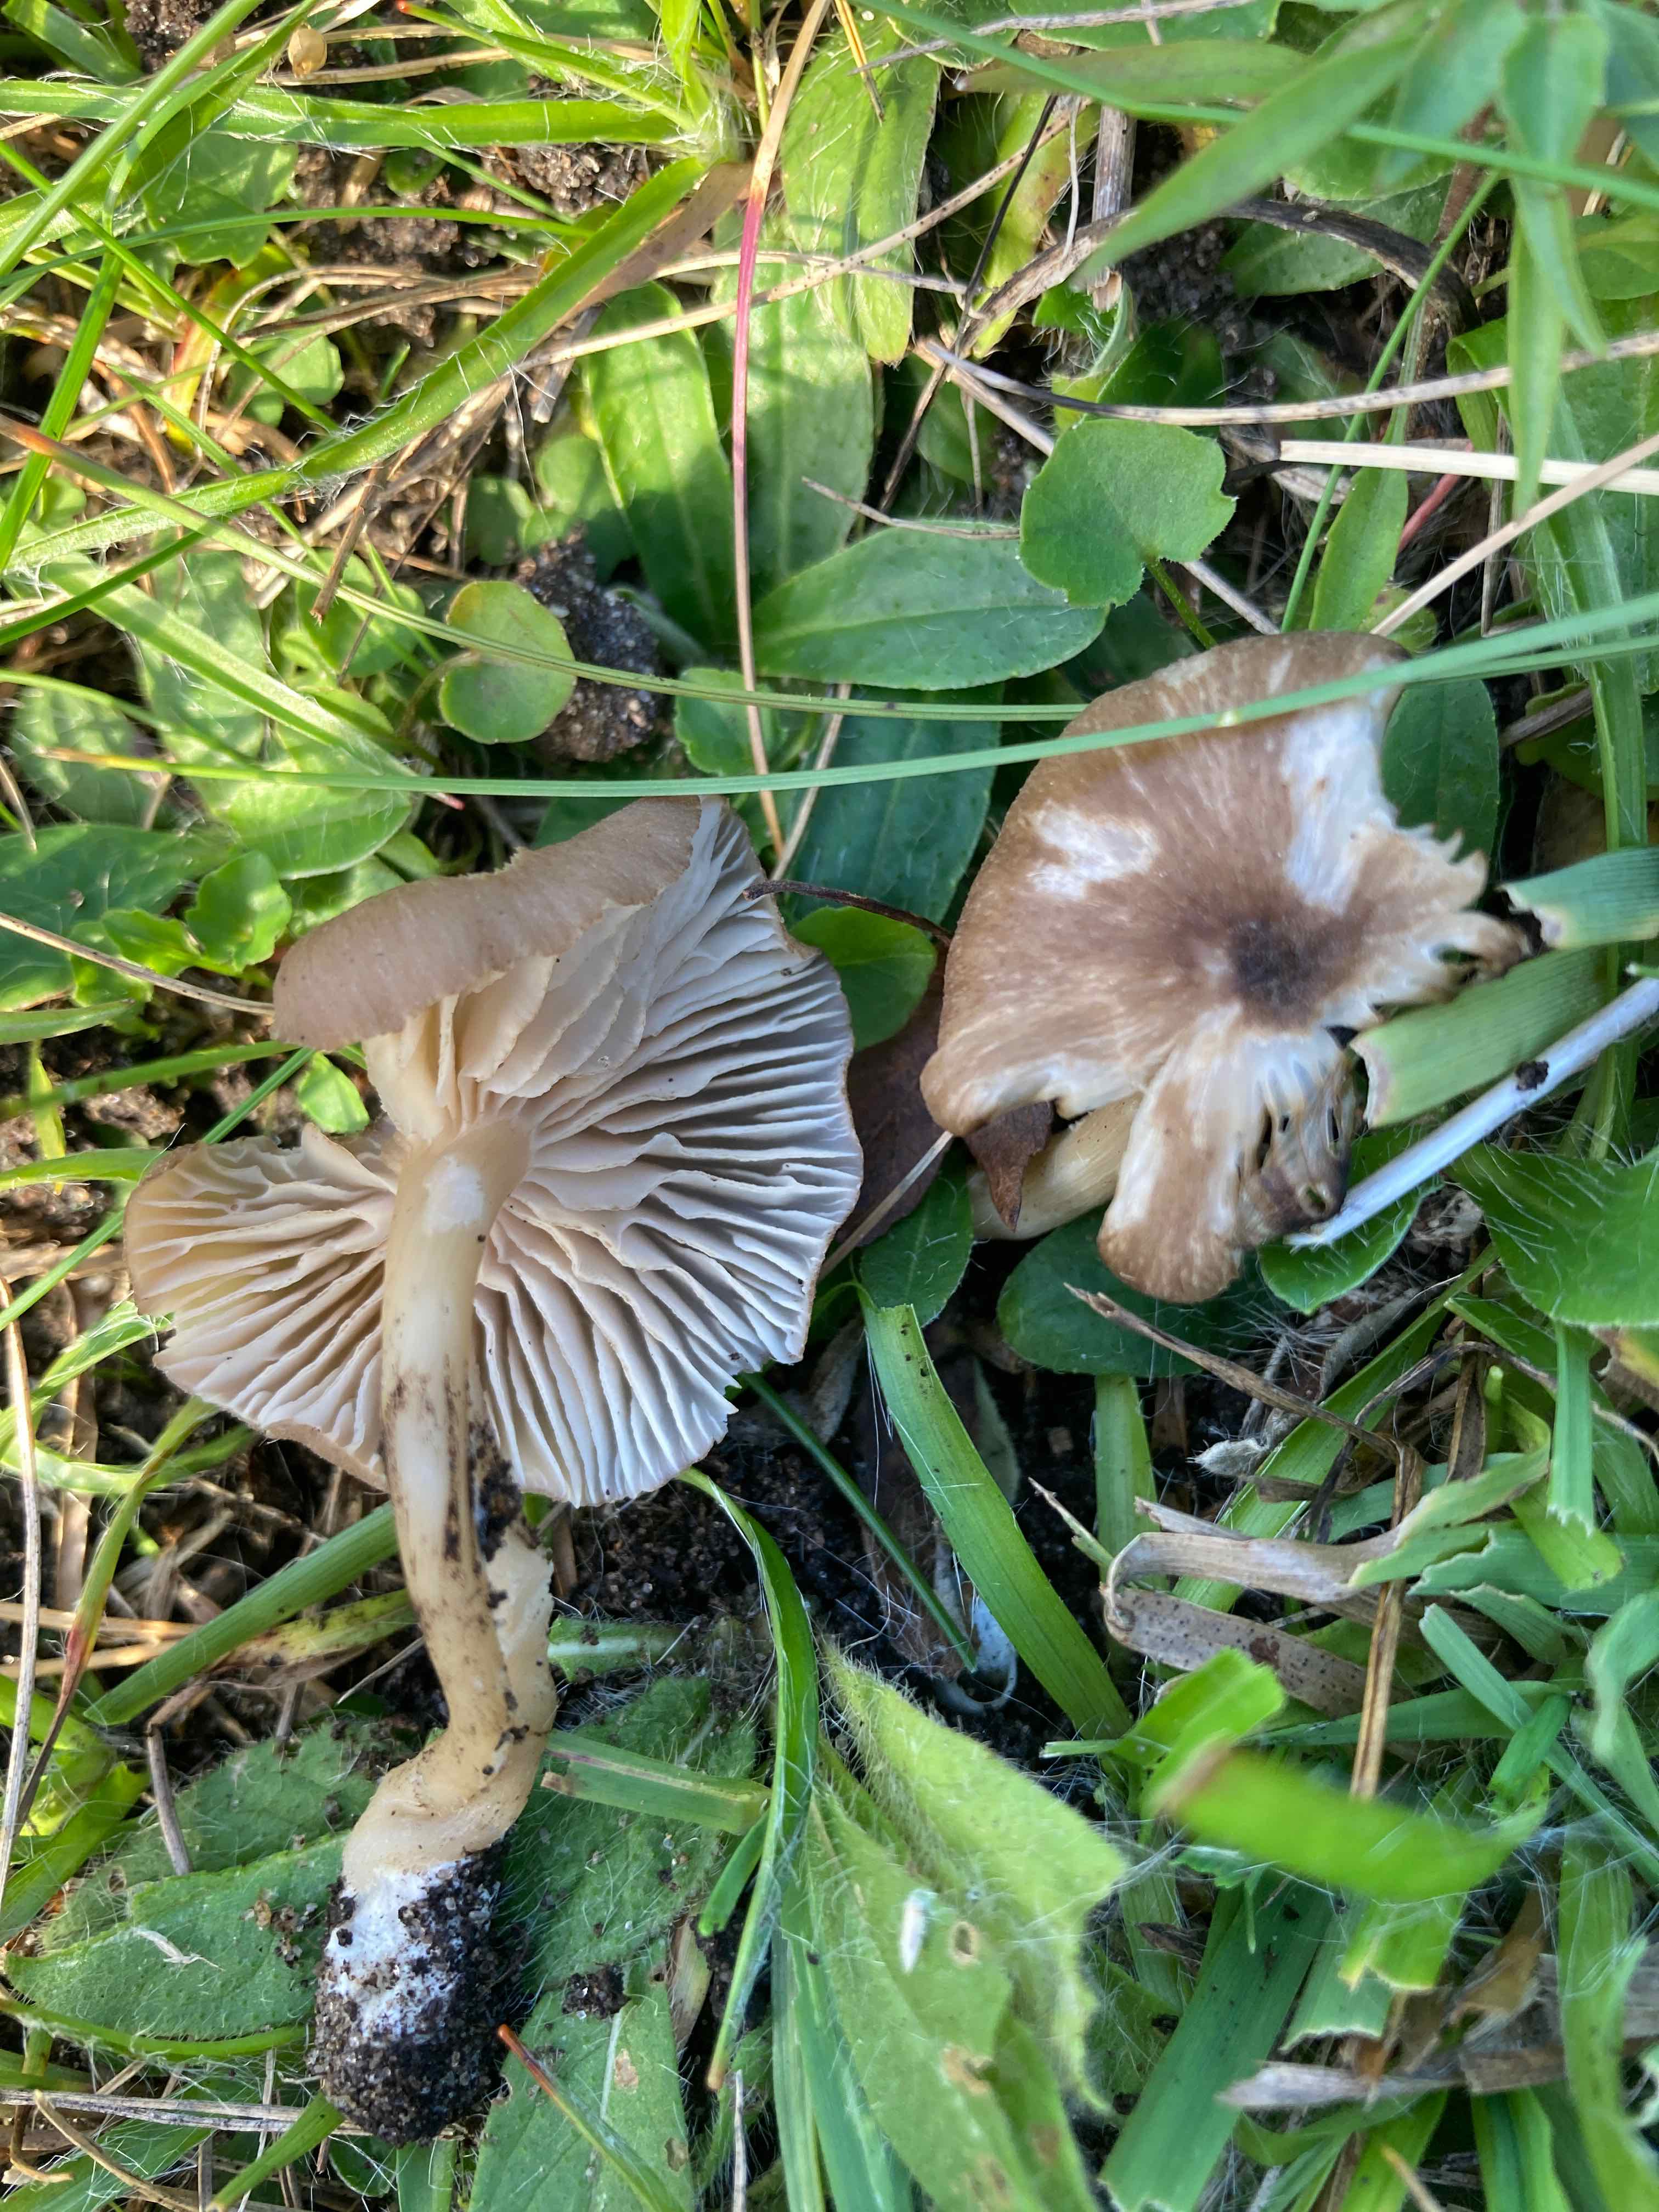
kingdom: Fungi
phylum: Basidiomycota
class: Agaricomycetes
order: Agaricales
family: Entolomataceae
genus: Entoloma
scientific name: Entoloma pseudoturci
